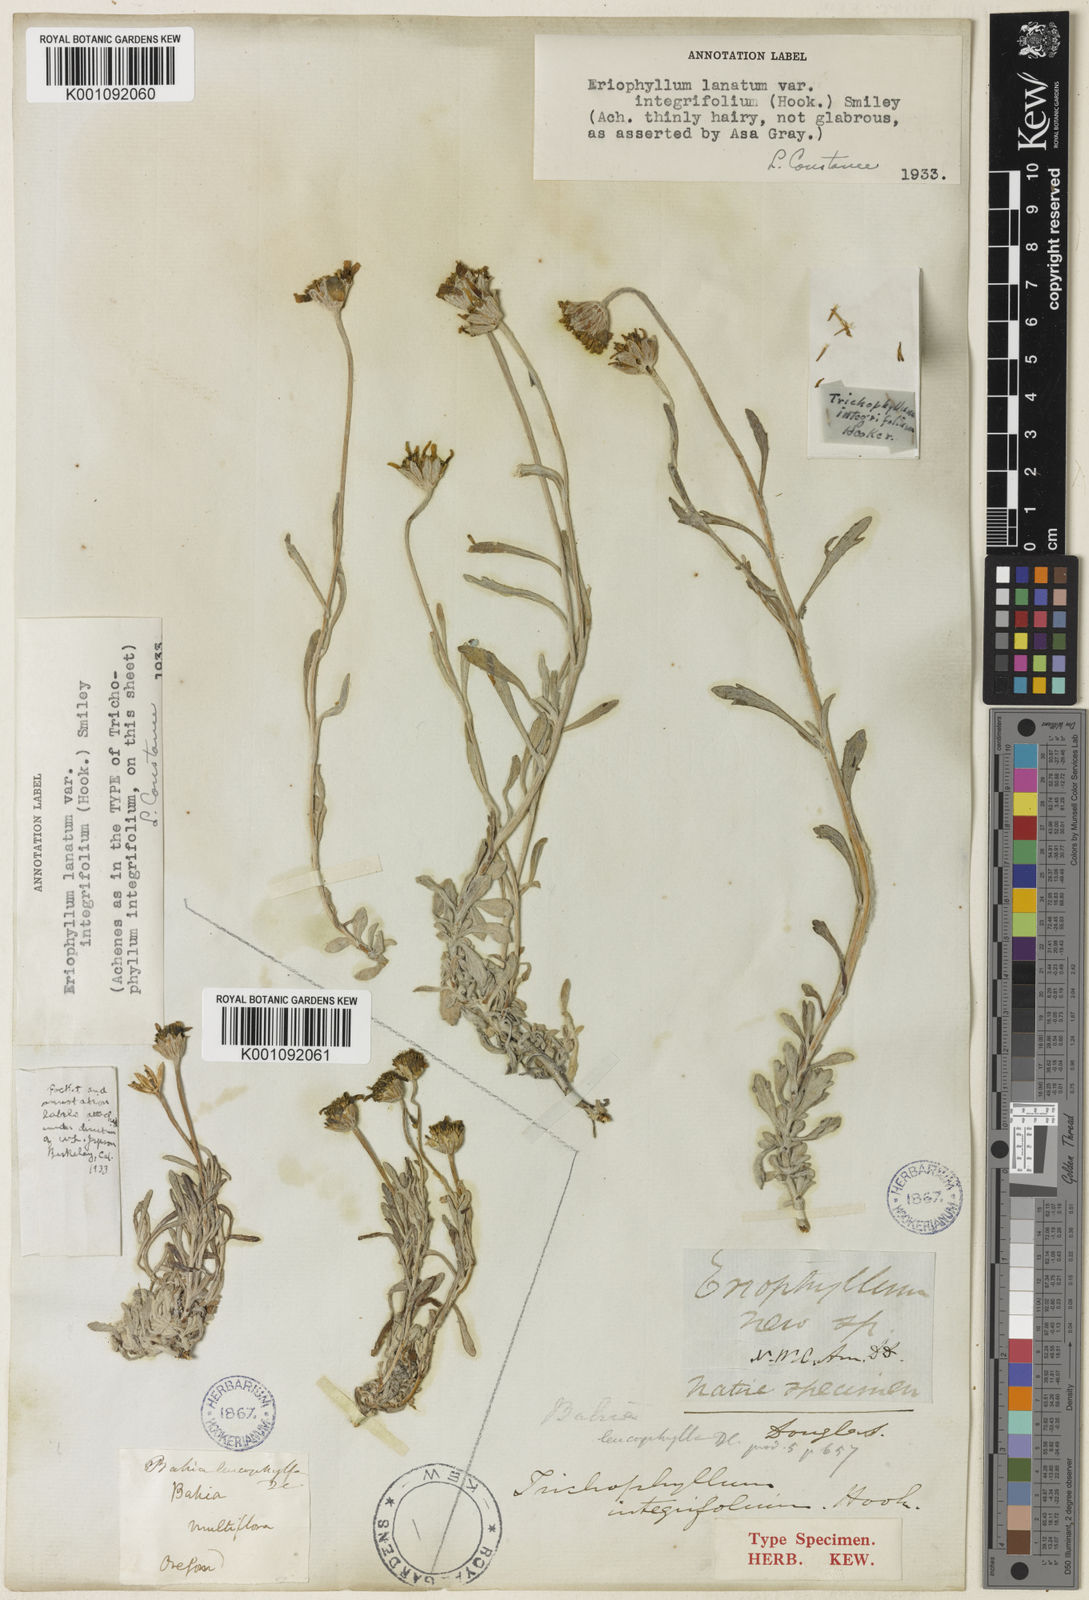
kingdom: Plantae
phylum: Tracheophyta
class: Magnoliopsida
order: Asterales
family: Asteraceae
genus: Eriophyllum
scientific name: Eriophyllum lanatum
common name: Common woolly-sunflower
